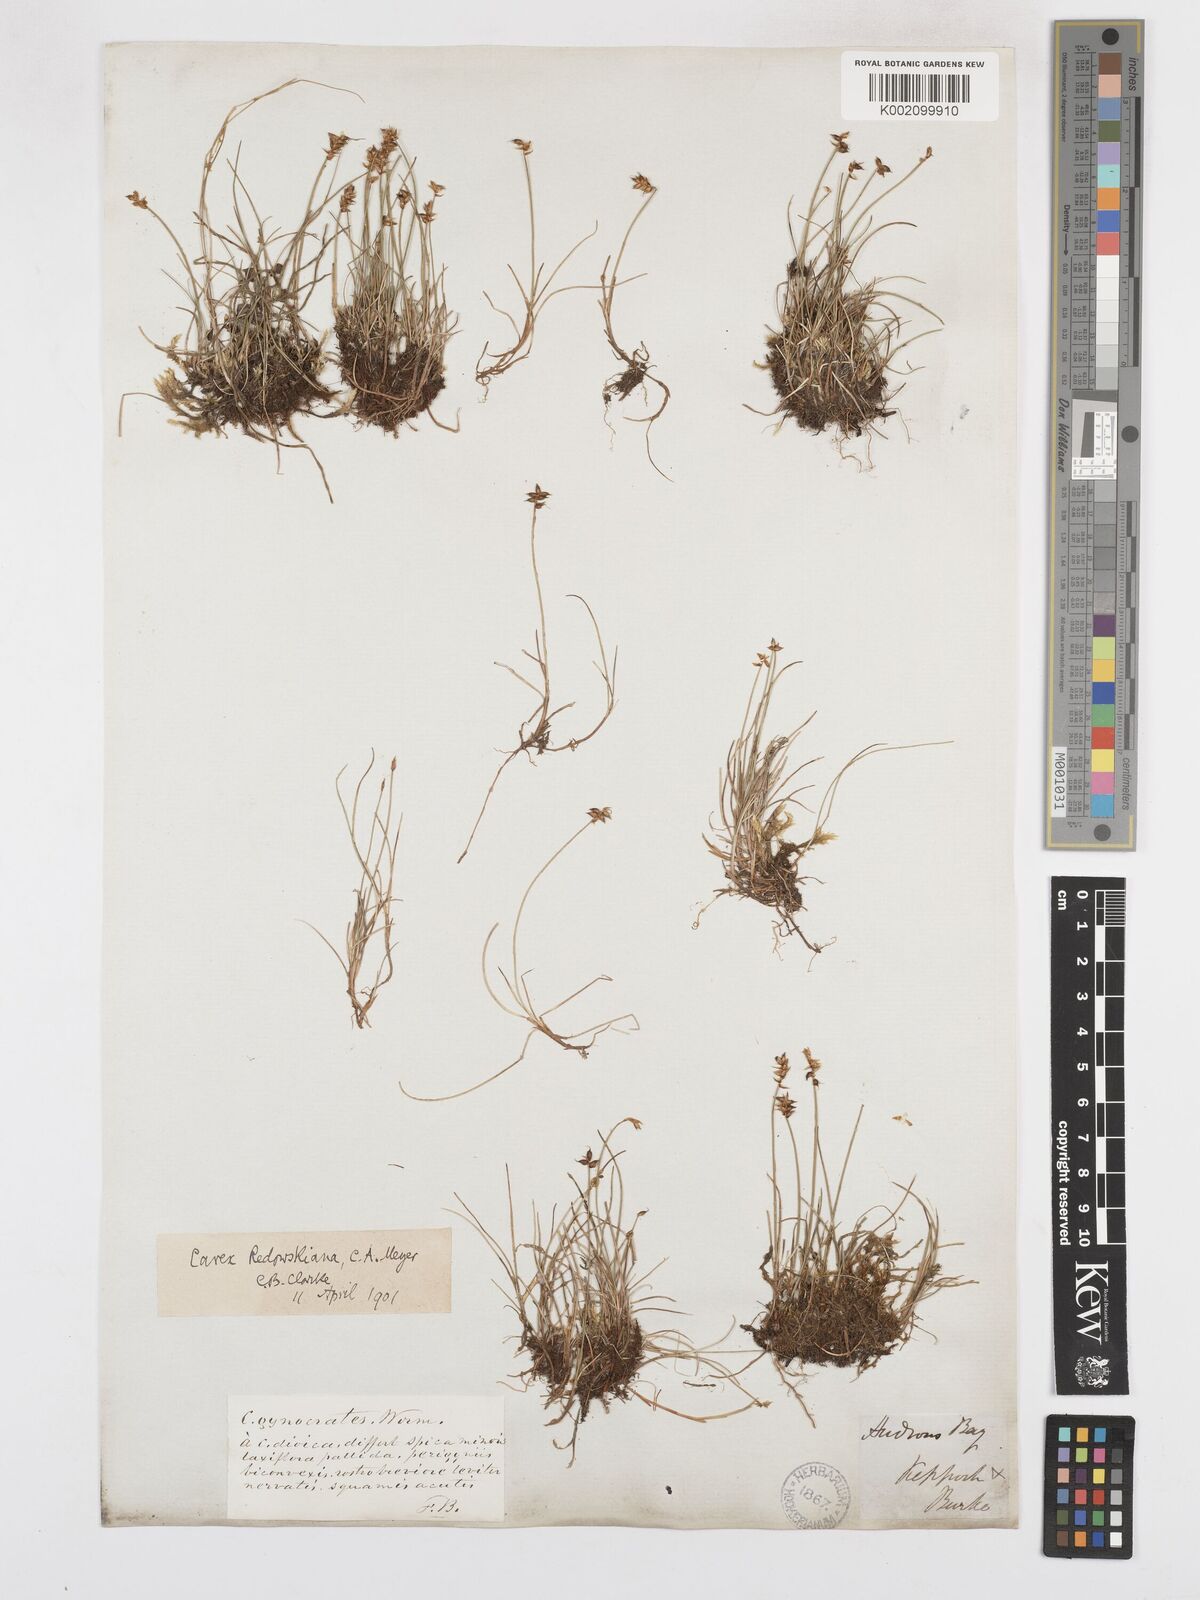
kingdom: Plantae
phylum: Tracheophyta
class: Liliopsida
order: Poales
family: Cyperaceae
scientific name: Cyperaceae
